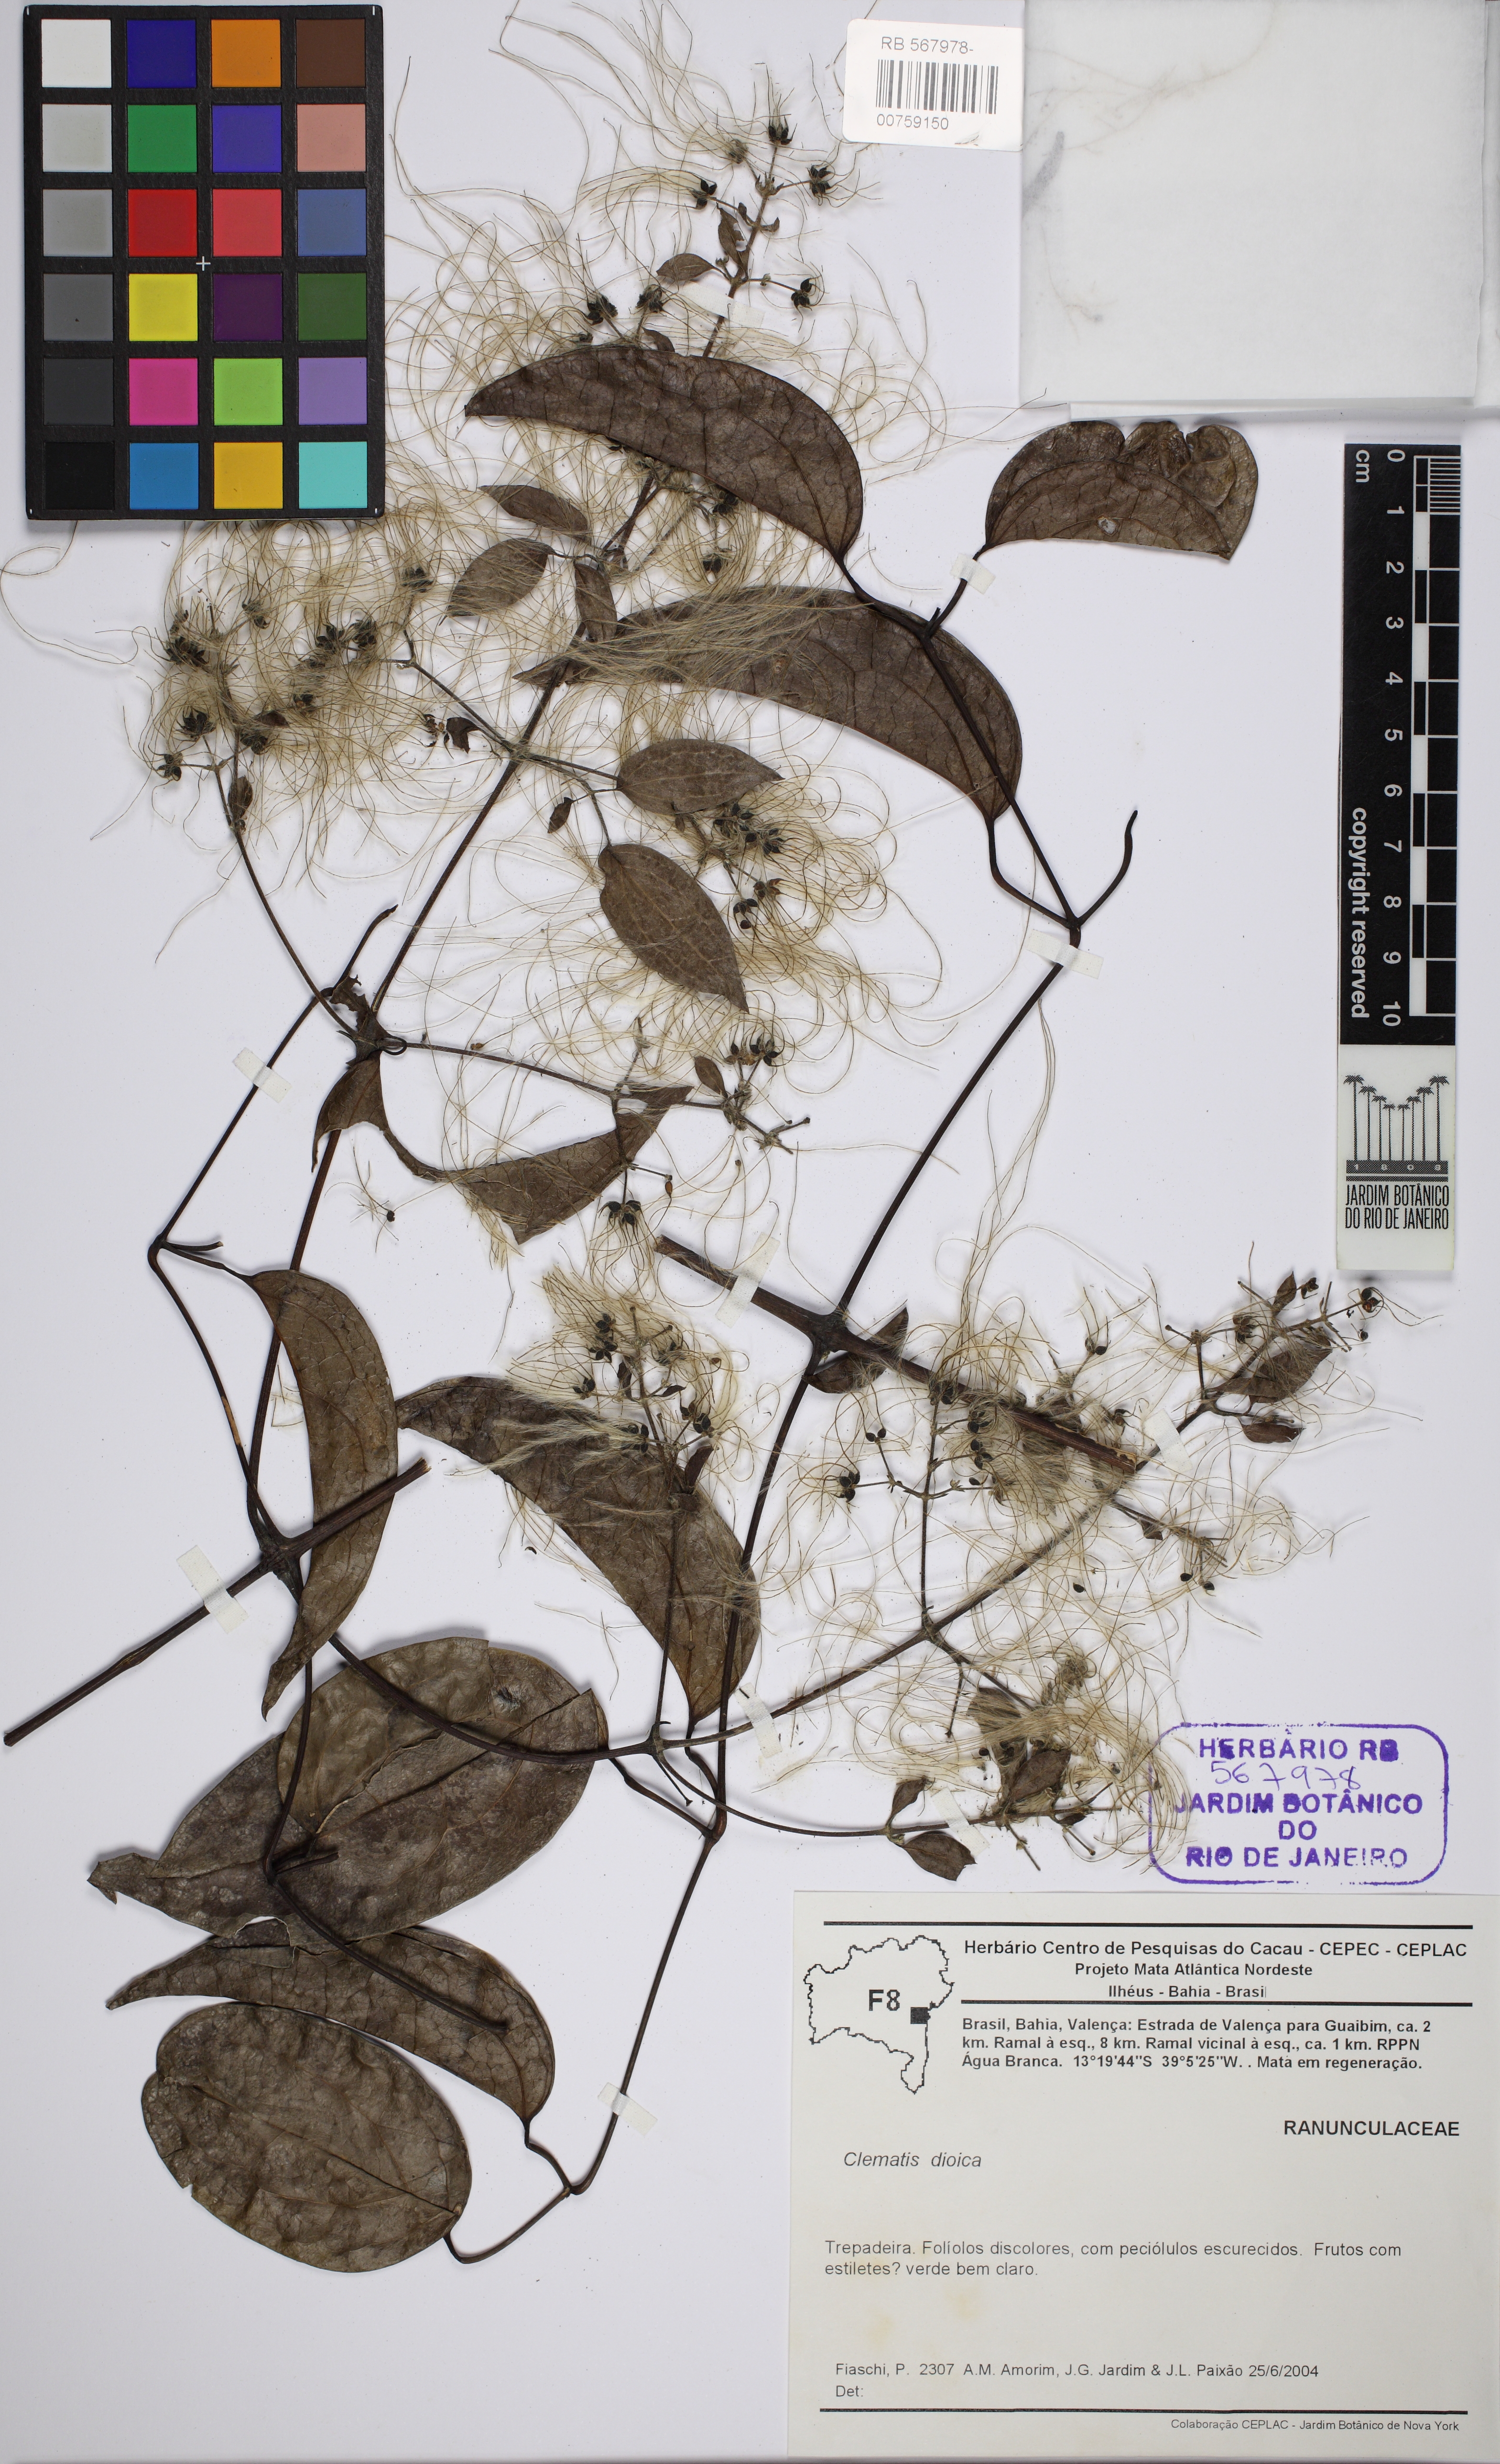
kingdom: Plantae
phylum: Tracheophyta
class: Magnoliopsida
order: Ranunculales
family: Ranunculaceae
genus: Clematis
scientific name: Clematis dioica
